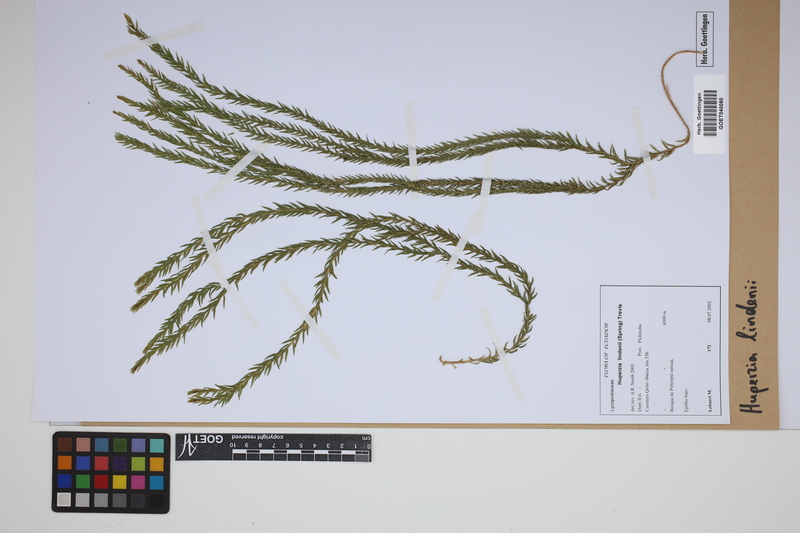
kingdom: Plantae
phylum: Tracheophyta
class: Lycopodiopsida
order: Lycopodiales
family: Lycopodiaceae
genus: Phlegmariurus
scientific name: Phlegmariurus lindenii
